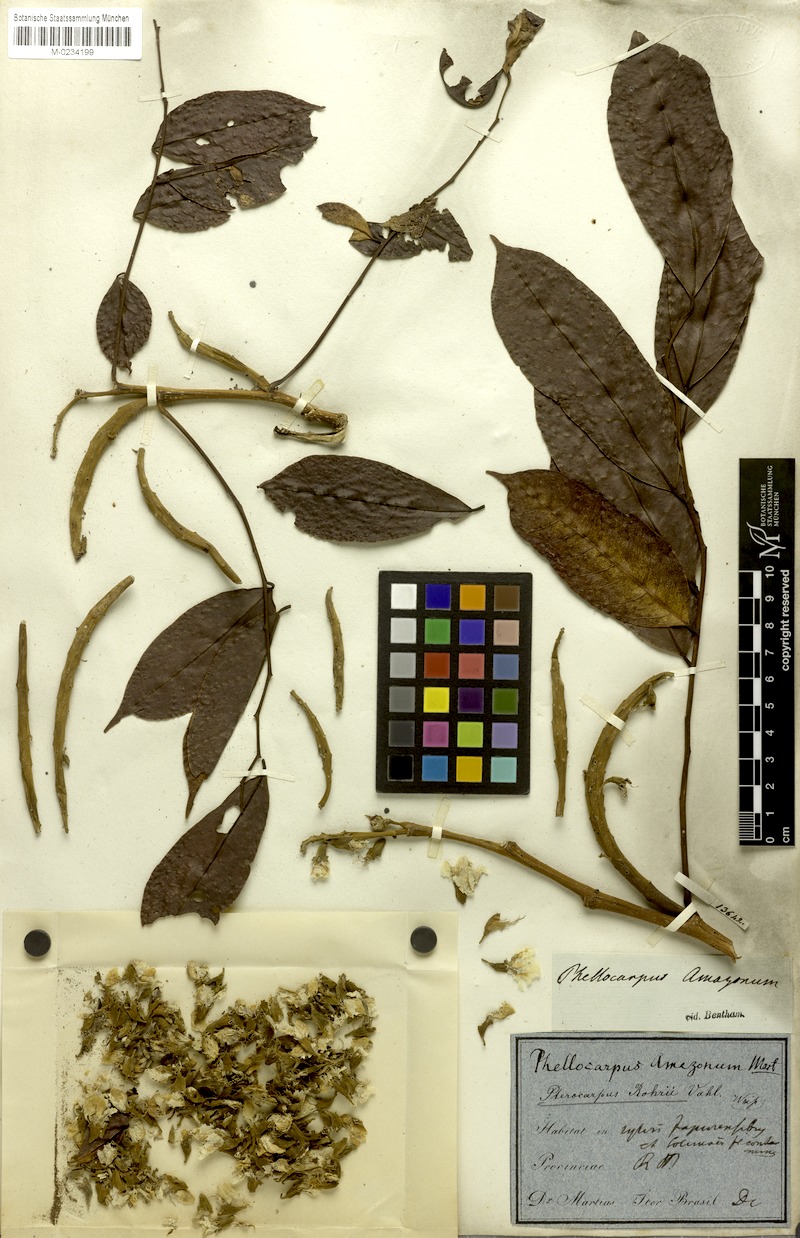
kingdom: Plantae
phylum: Tracheophyta
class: Magnoliopsida
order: Fabales
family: Fabaceae
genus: Pterocarpus
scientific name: Pterocarpus amazonum
